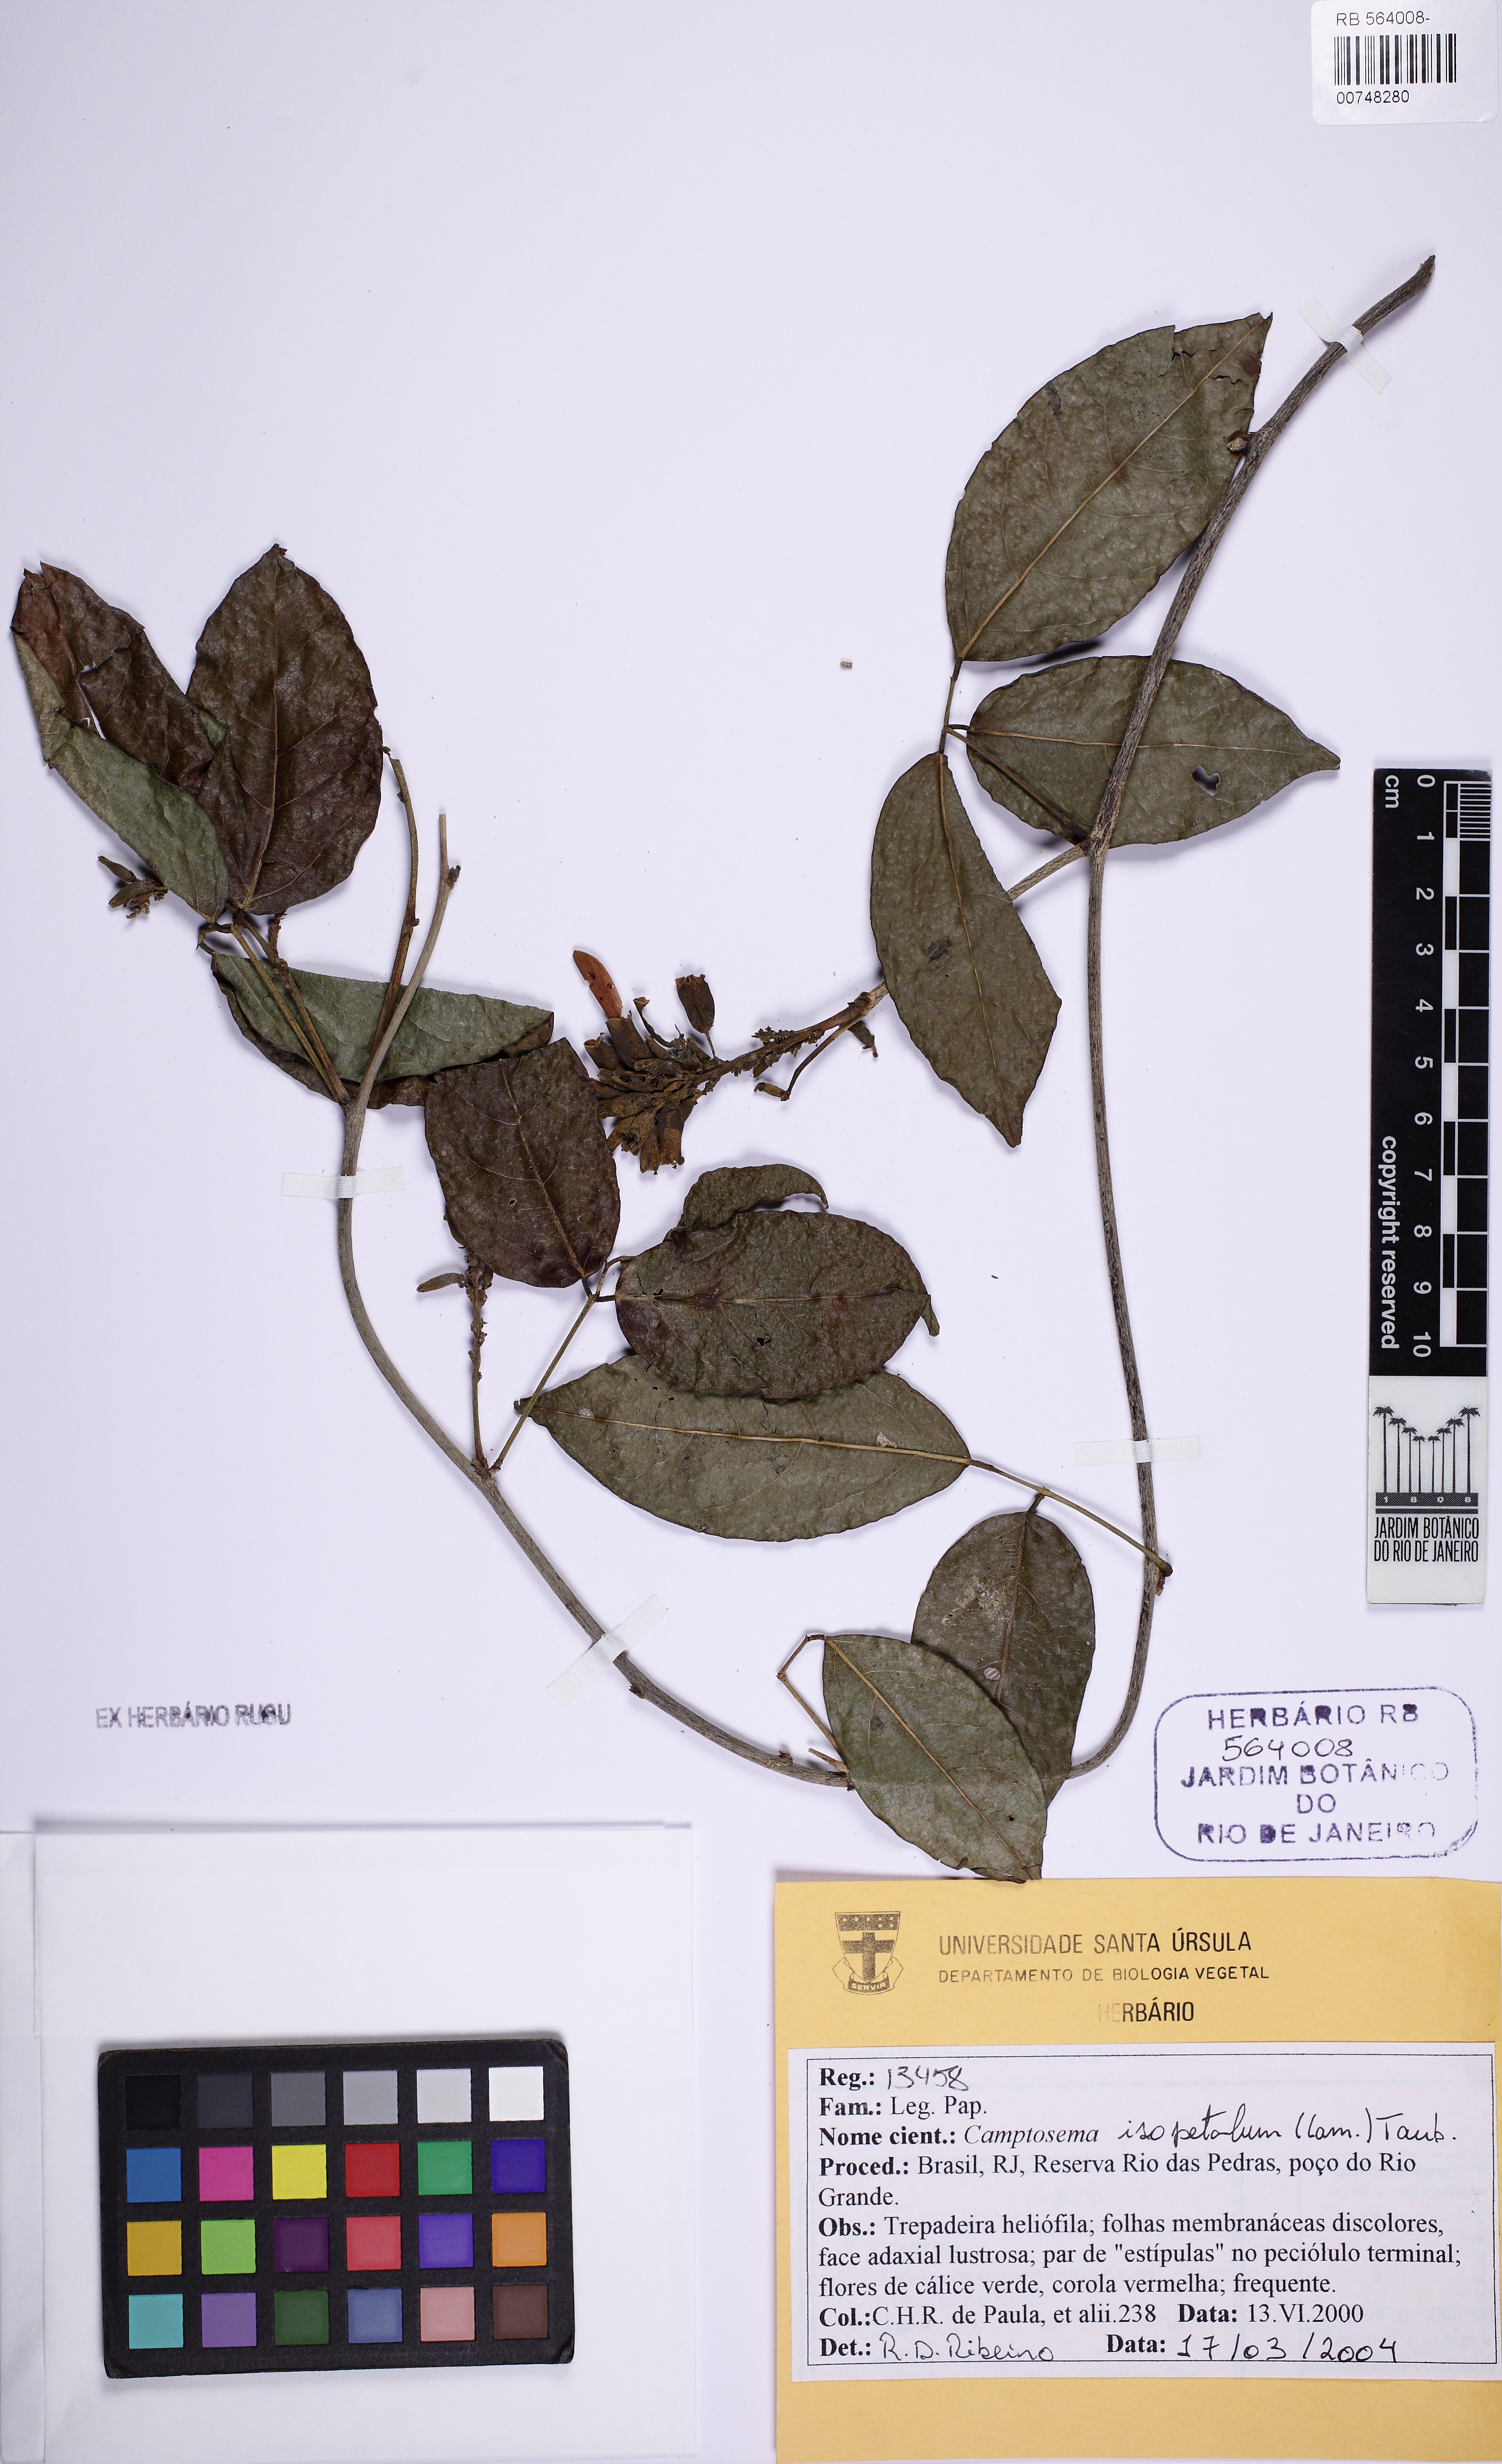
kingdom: Plantae
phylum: Tracheophyta
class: Magnoliopsida
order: Fabales
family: Fabaceae
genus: Cratylia
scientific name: Cratylia isopetala
